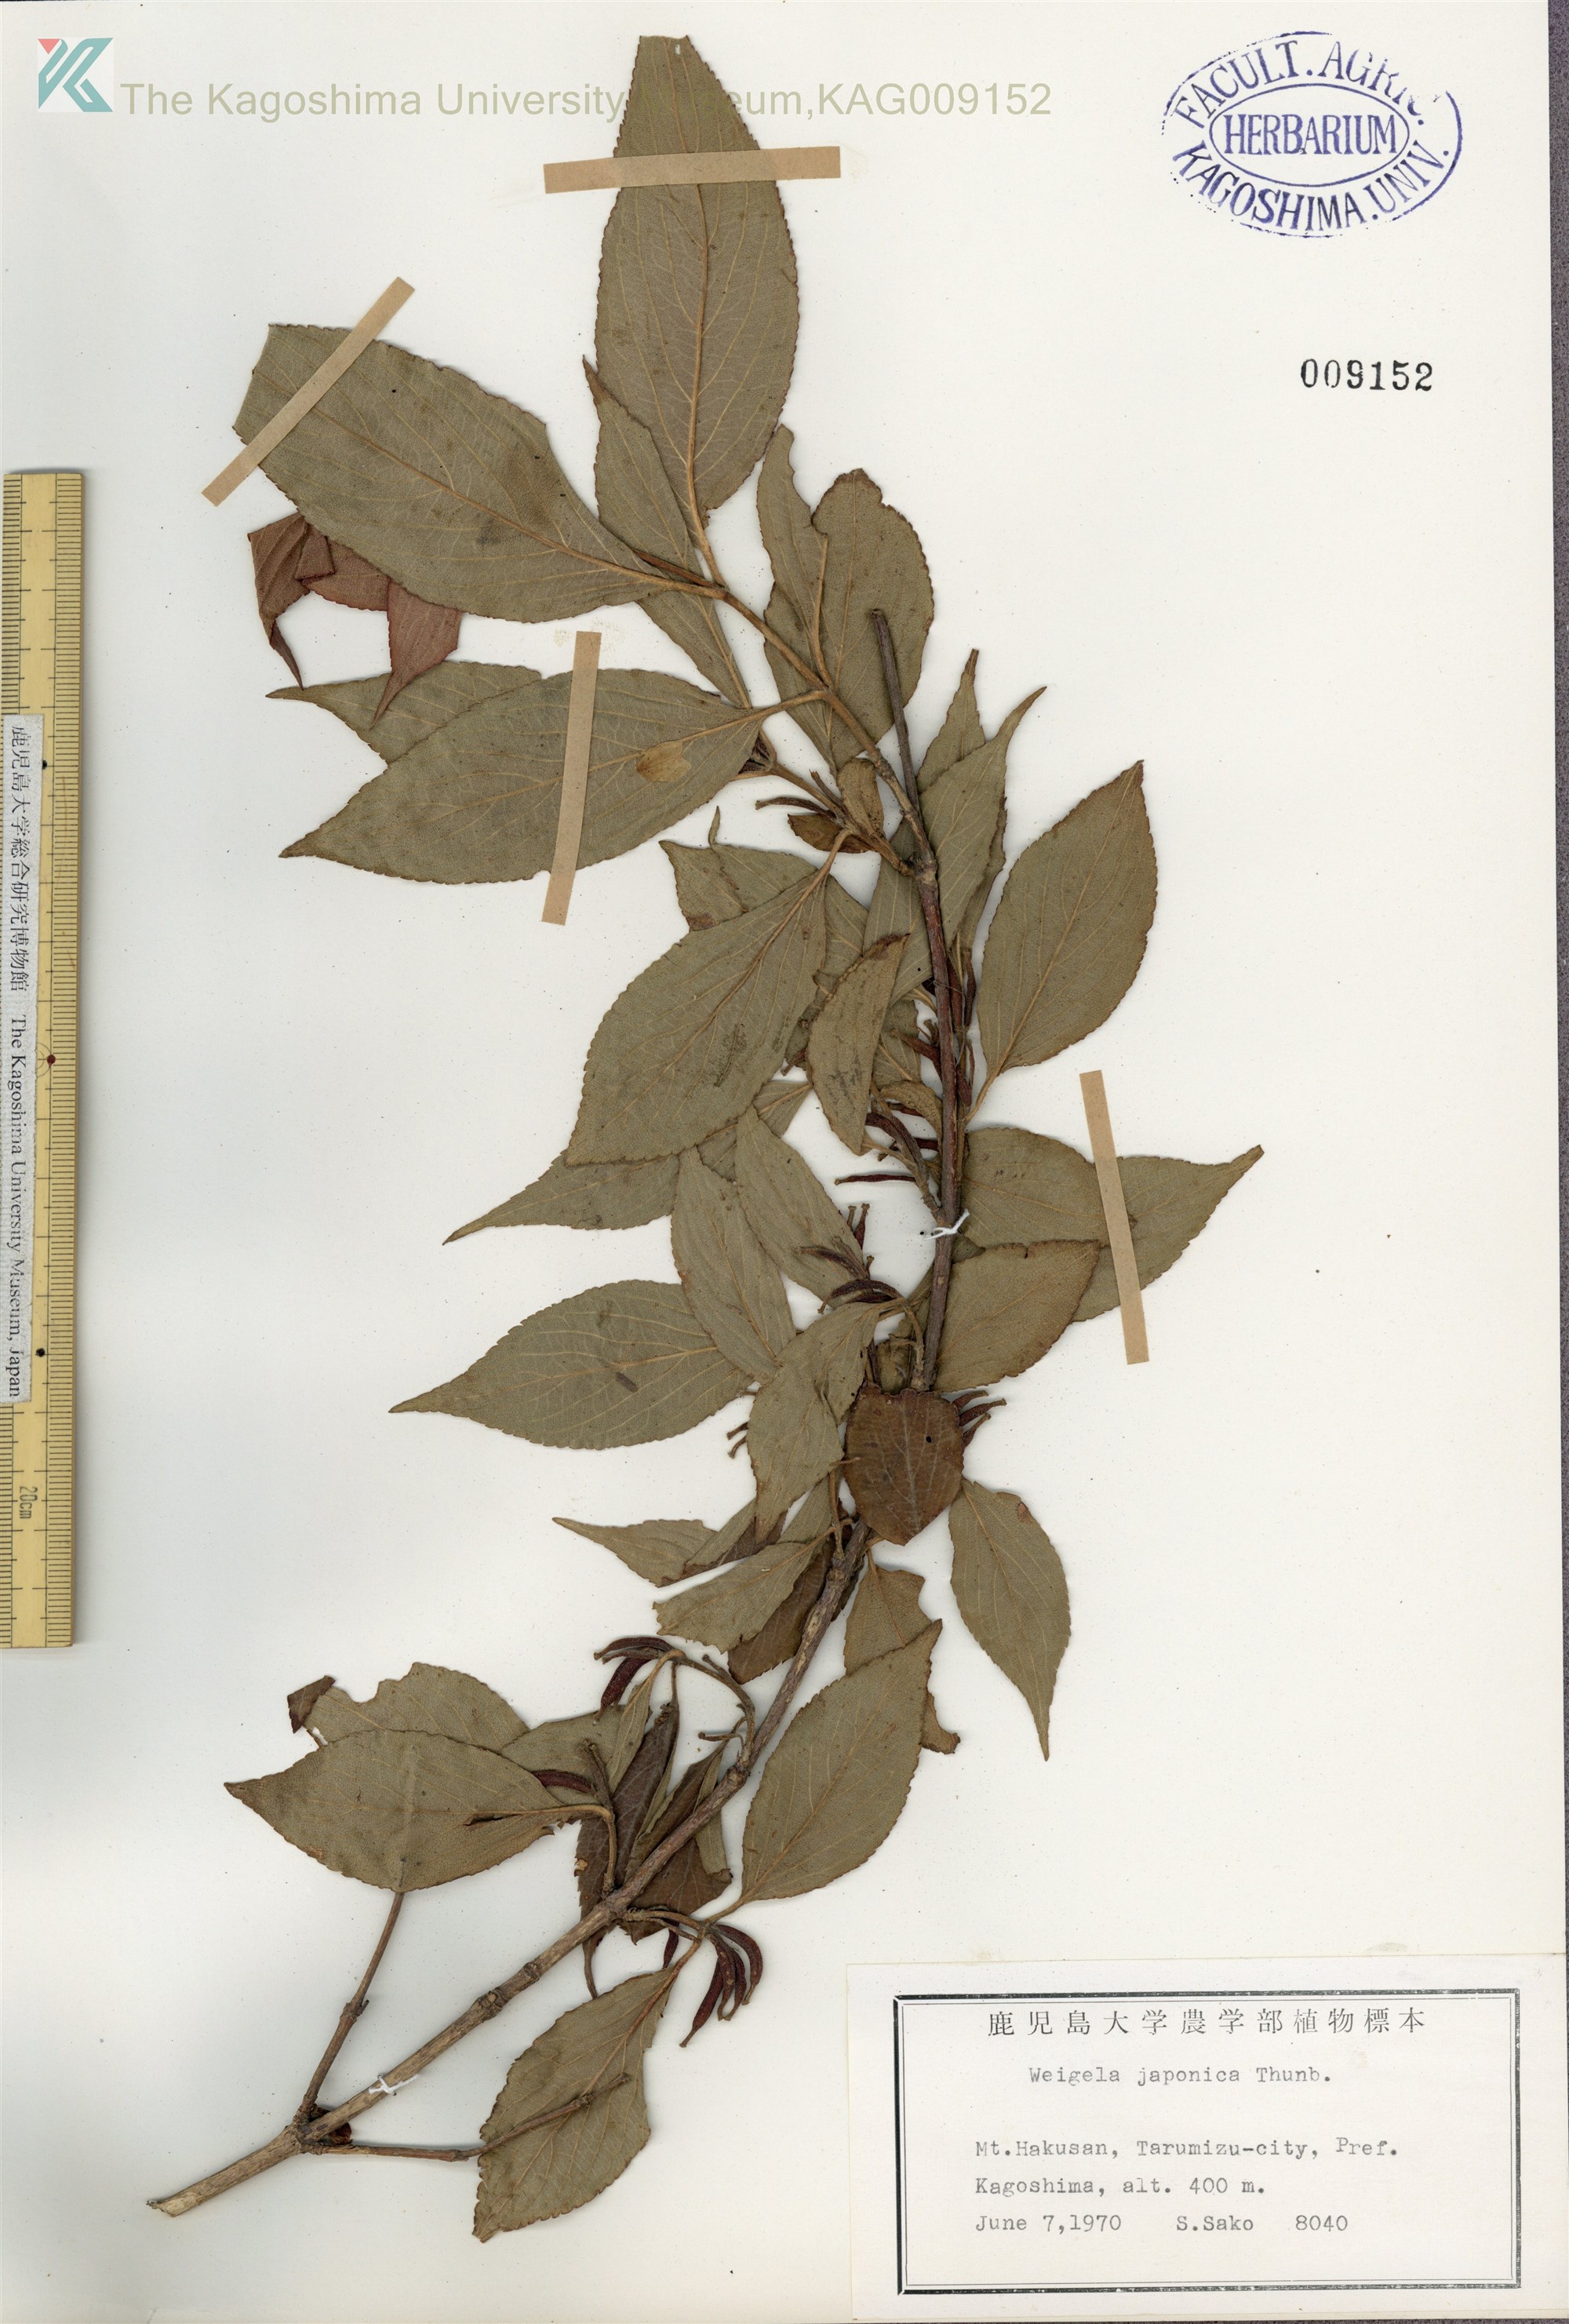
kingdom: Plantae
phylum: Tracheophyta
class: Magnoliopsida
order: Dipsacales
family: Caprifoliaceae
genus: Weigela
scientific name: Weigela japonica
